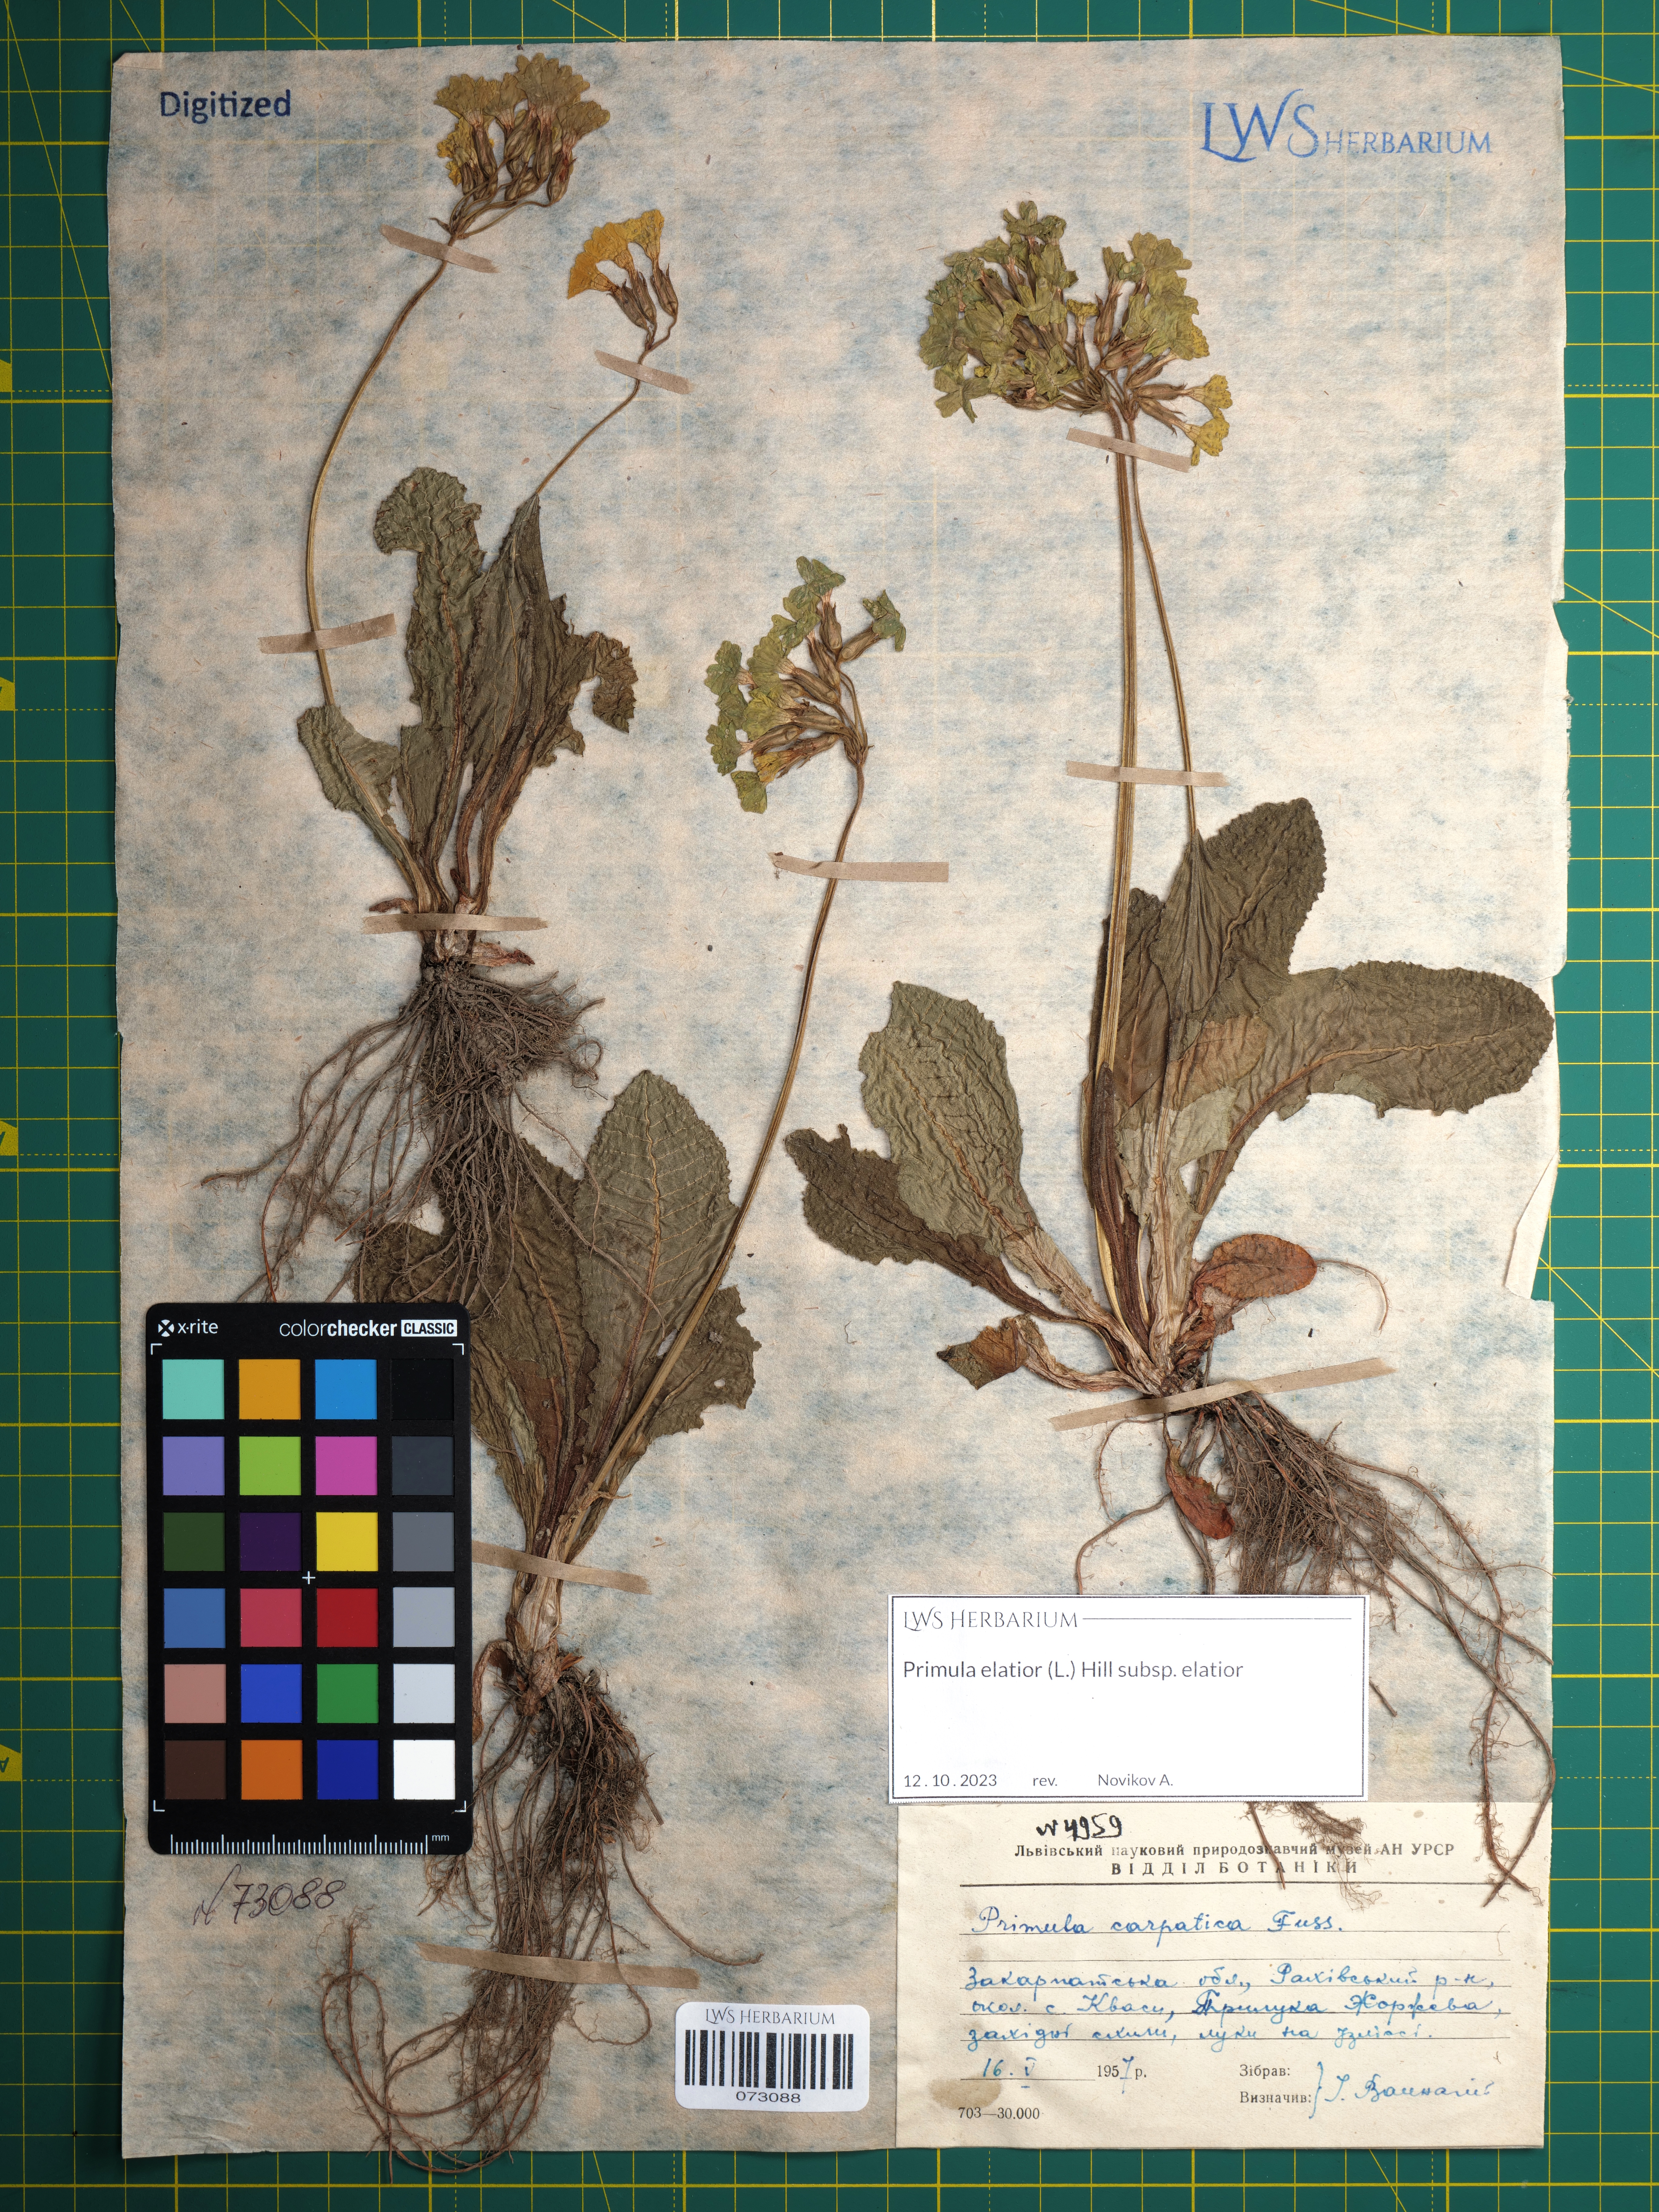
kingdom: Plantae
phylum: Tracheophyta
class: Magnoliopsida
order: Ericales
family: Primulaceae
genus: Primula
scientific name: Primula elatior
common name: Oxlip
